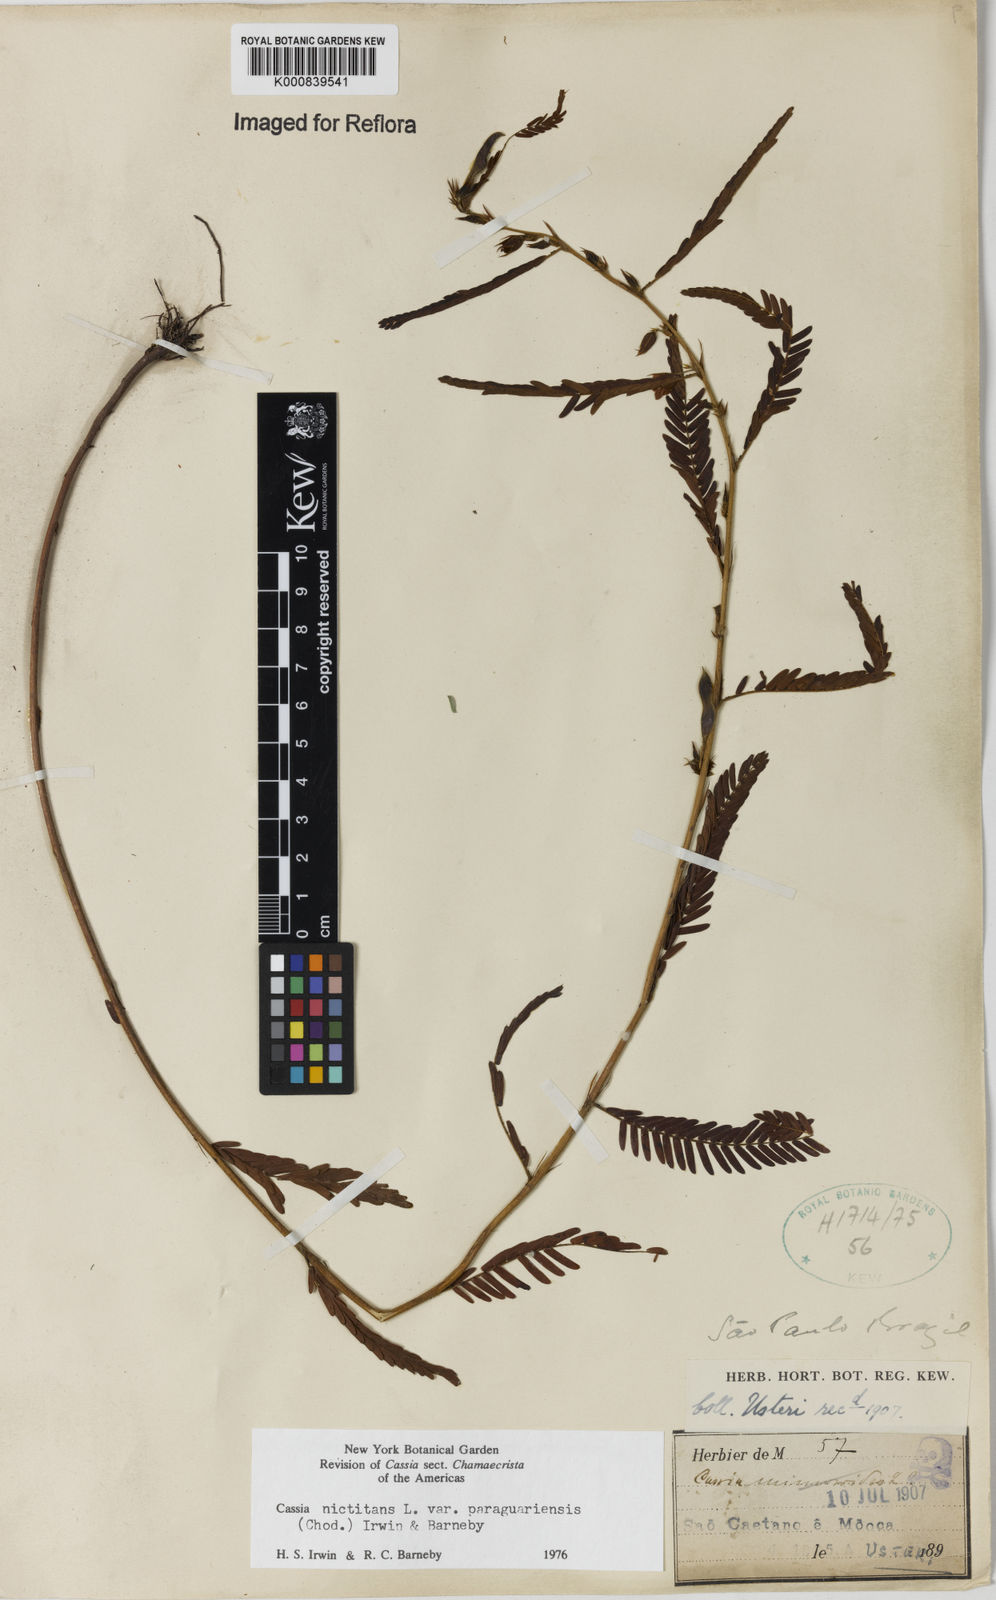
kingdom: Plantae
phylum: Tracheophyta
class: Magnoliopsida
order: Fabales
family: Fabaceae
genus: Chamaecrista
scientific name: Chamaecrista nictitans
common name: Sensitive cassia
